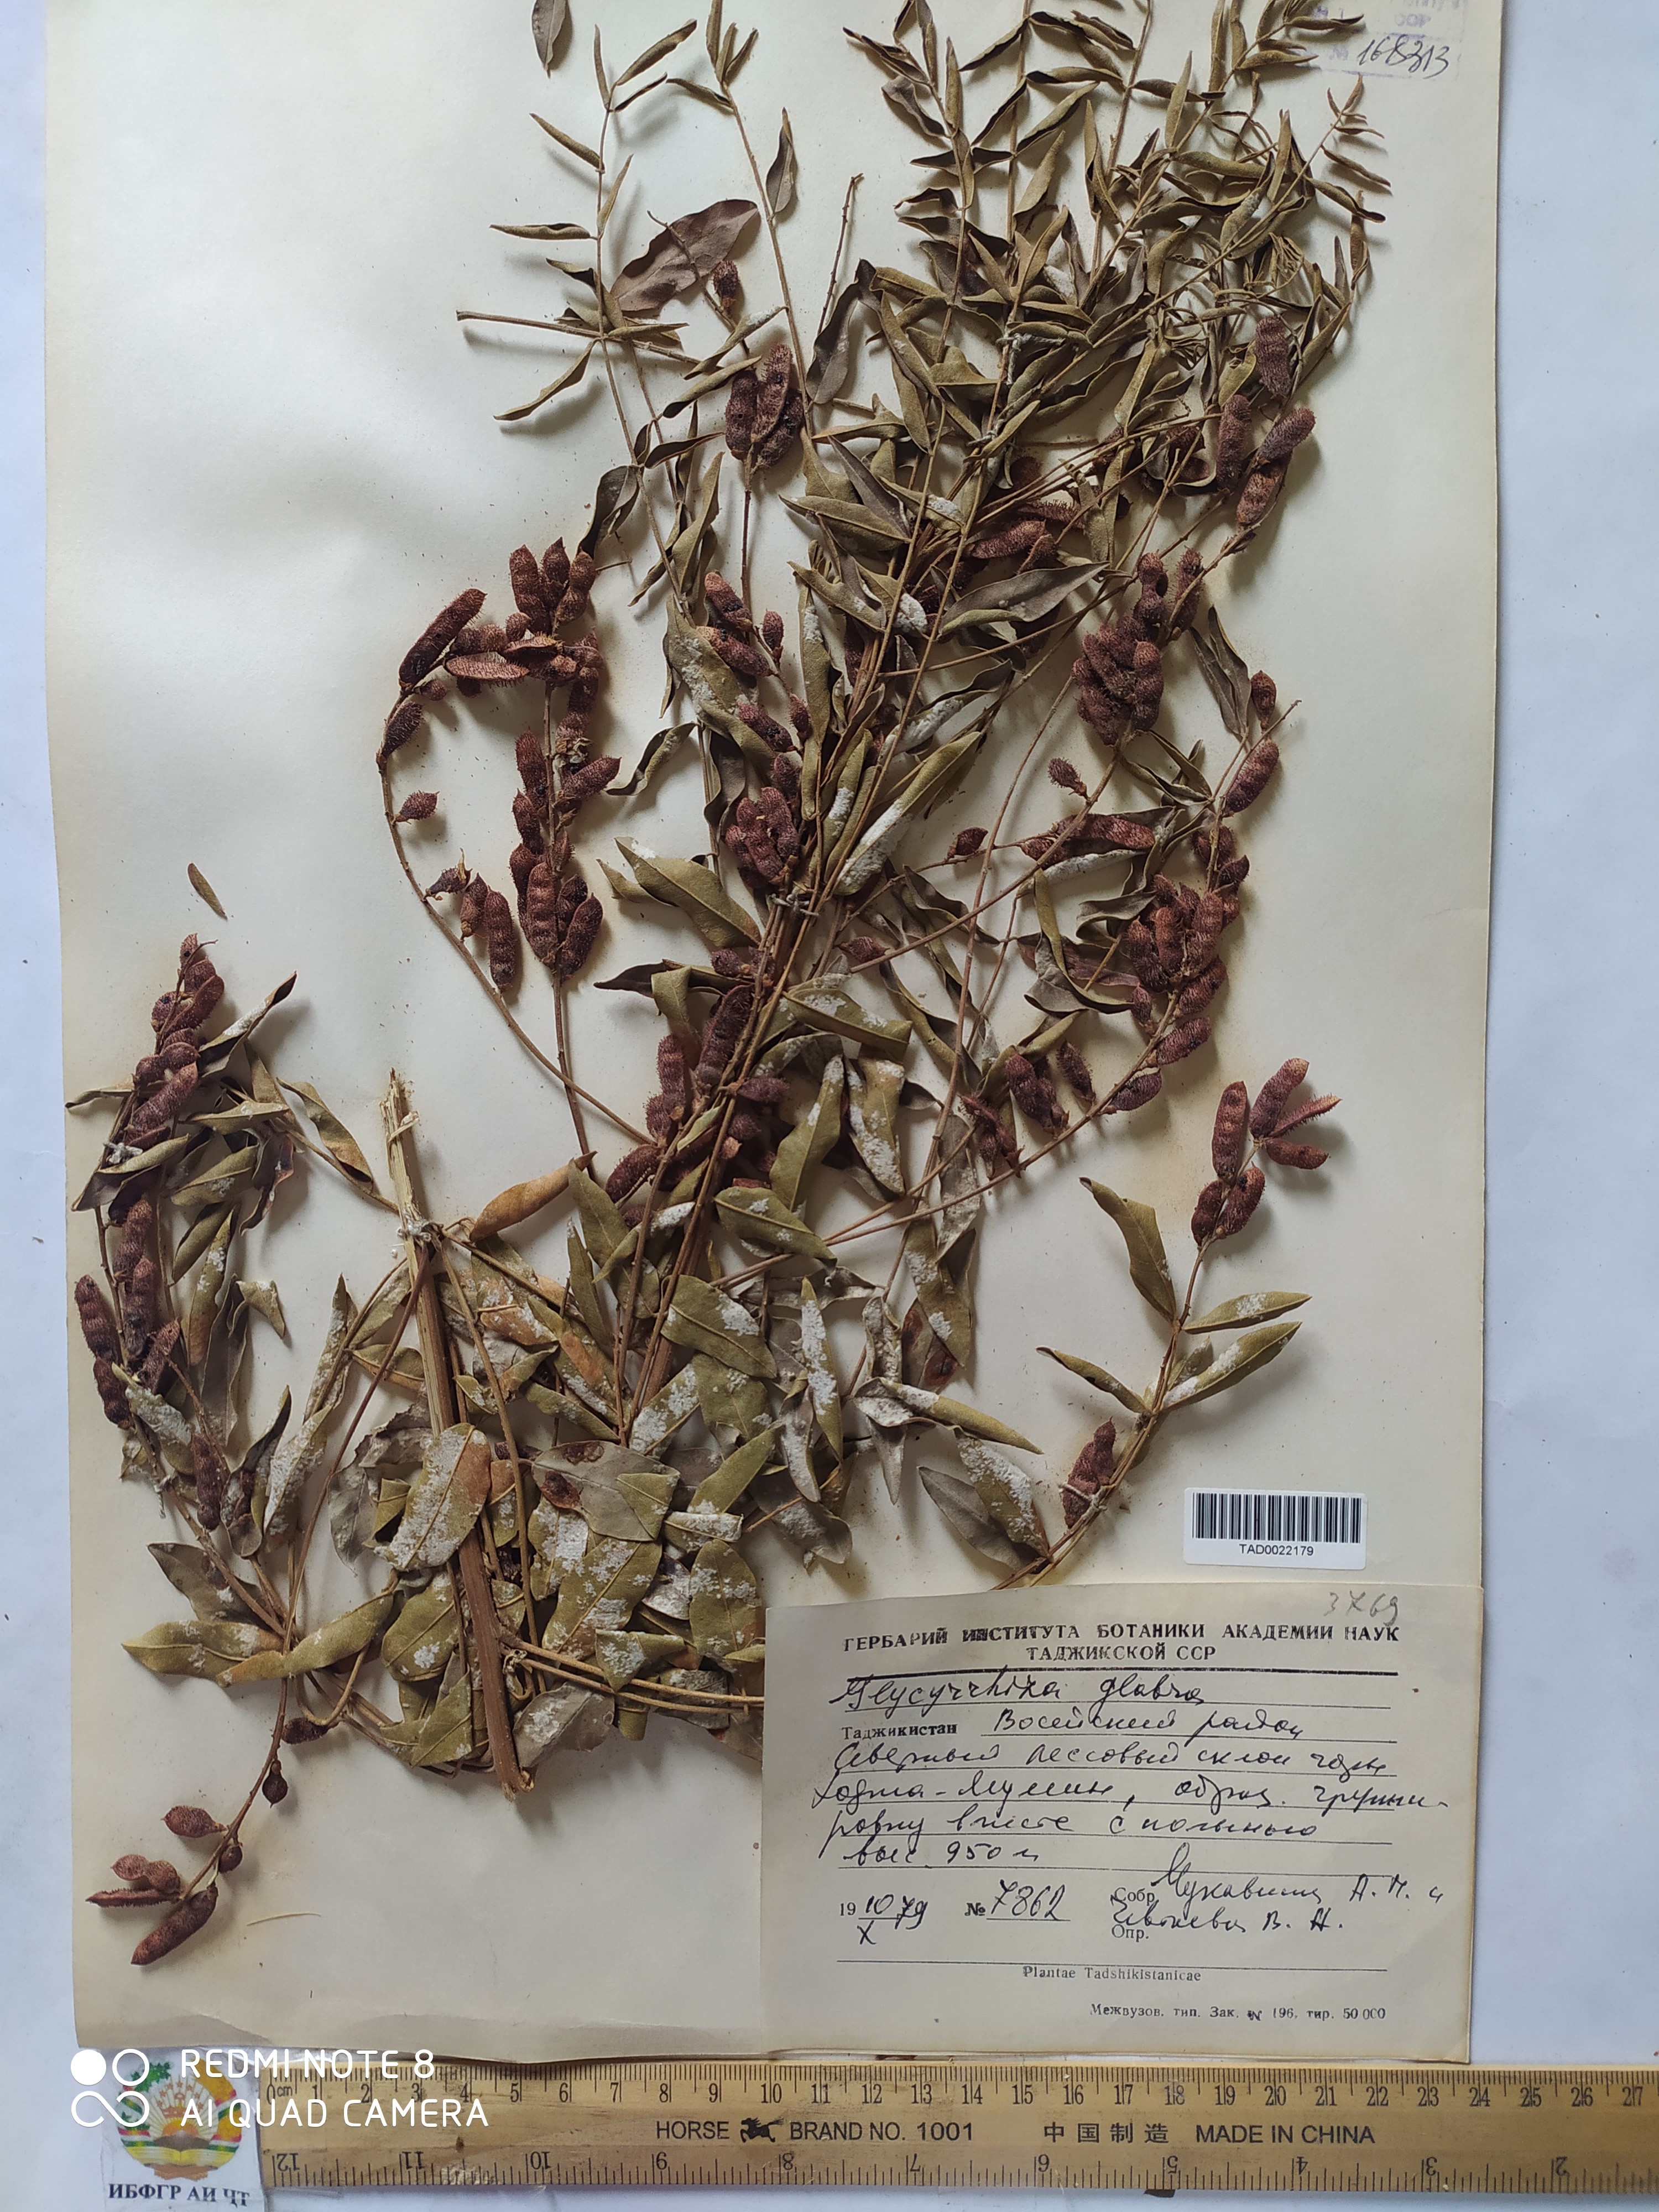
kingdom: Plantae
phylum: Tracheophyta
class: Magnoliopsida
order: Fabales
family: Fabaceae
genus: Glycyrrhiza
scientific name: Glycyrrhiza glabra
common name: Liquorice
